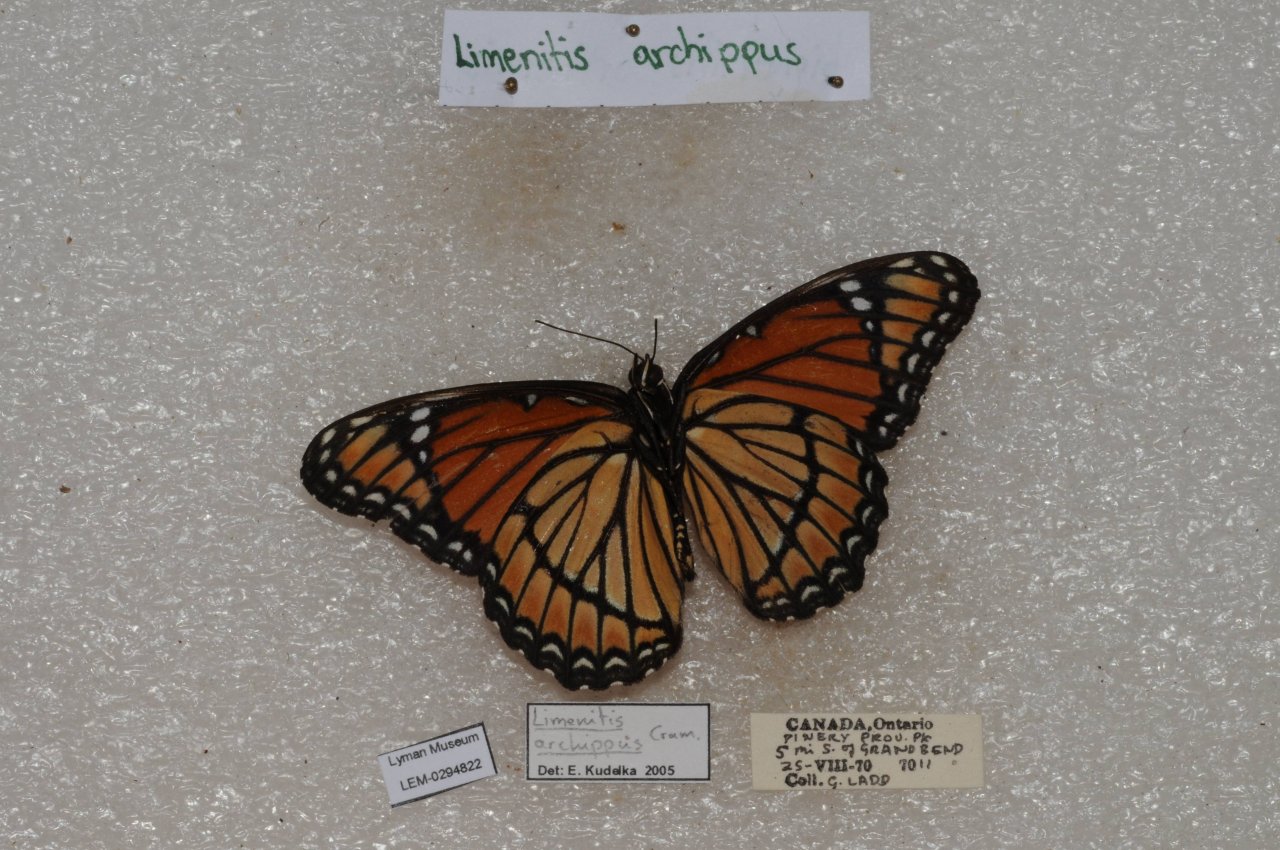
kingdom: Animalia
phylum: Arthropoda
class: Insecta
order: Lepidoptera
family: Nymphalidae
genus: Limenitis
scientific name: Limenitis archippus
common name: Viceroy
